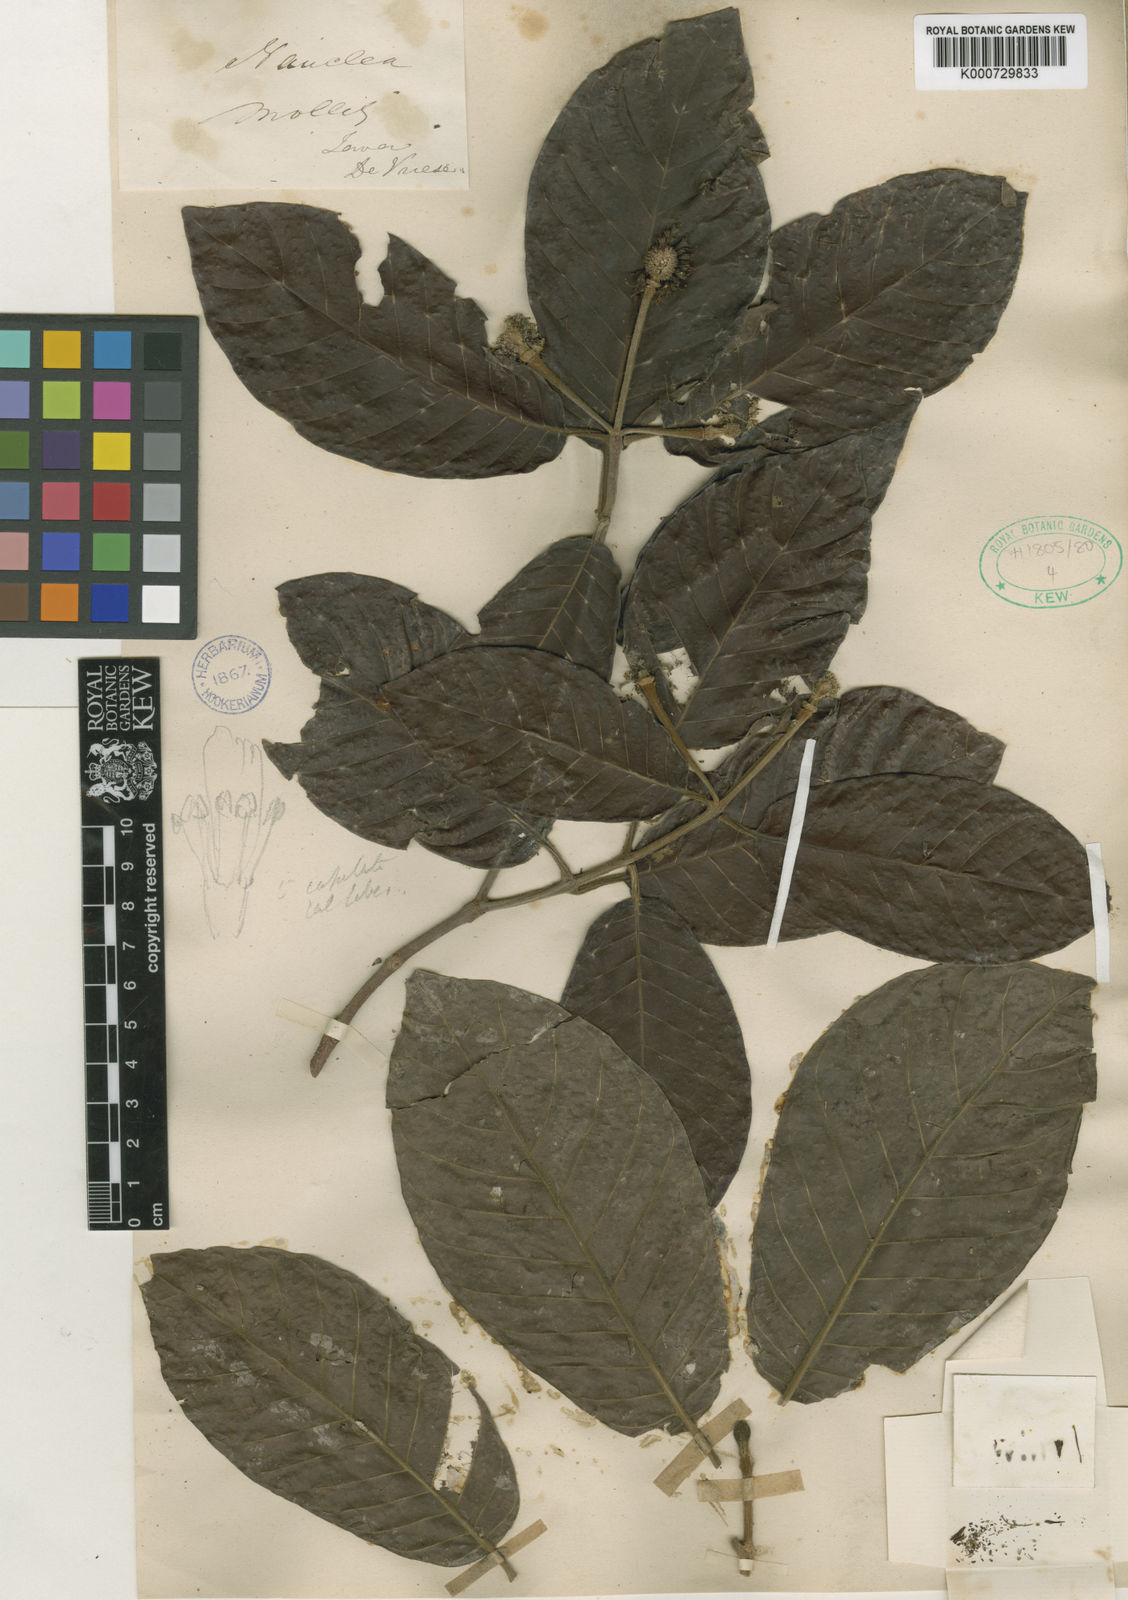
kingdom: Plantae
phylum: Tracheophyta
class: Magnoliopsida
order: Gentianales
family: Rubiaceae
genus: Neonauclea
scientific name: Neonauclea excelsa
